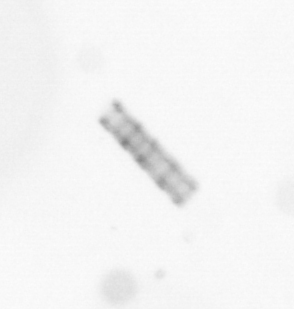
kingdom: Chromista
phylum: Ochrophyta
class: Bacillariophyceae
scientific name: Bacillariophyceae
